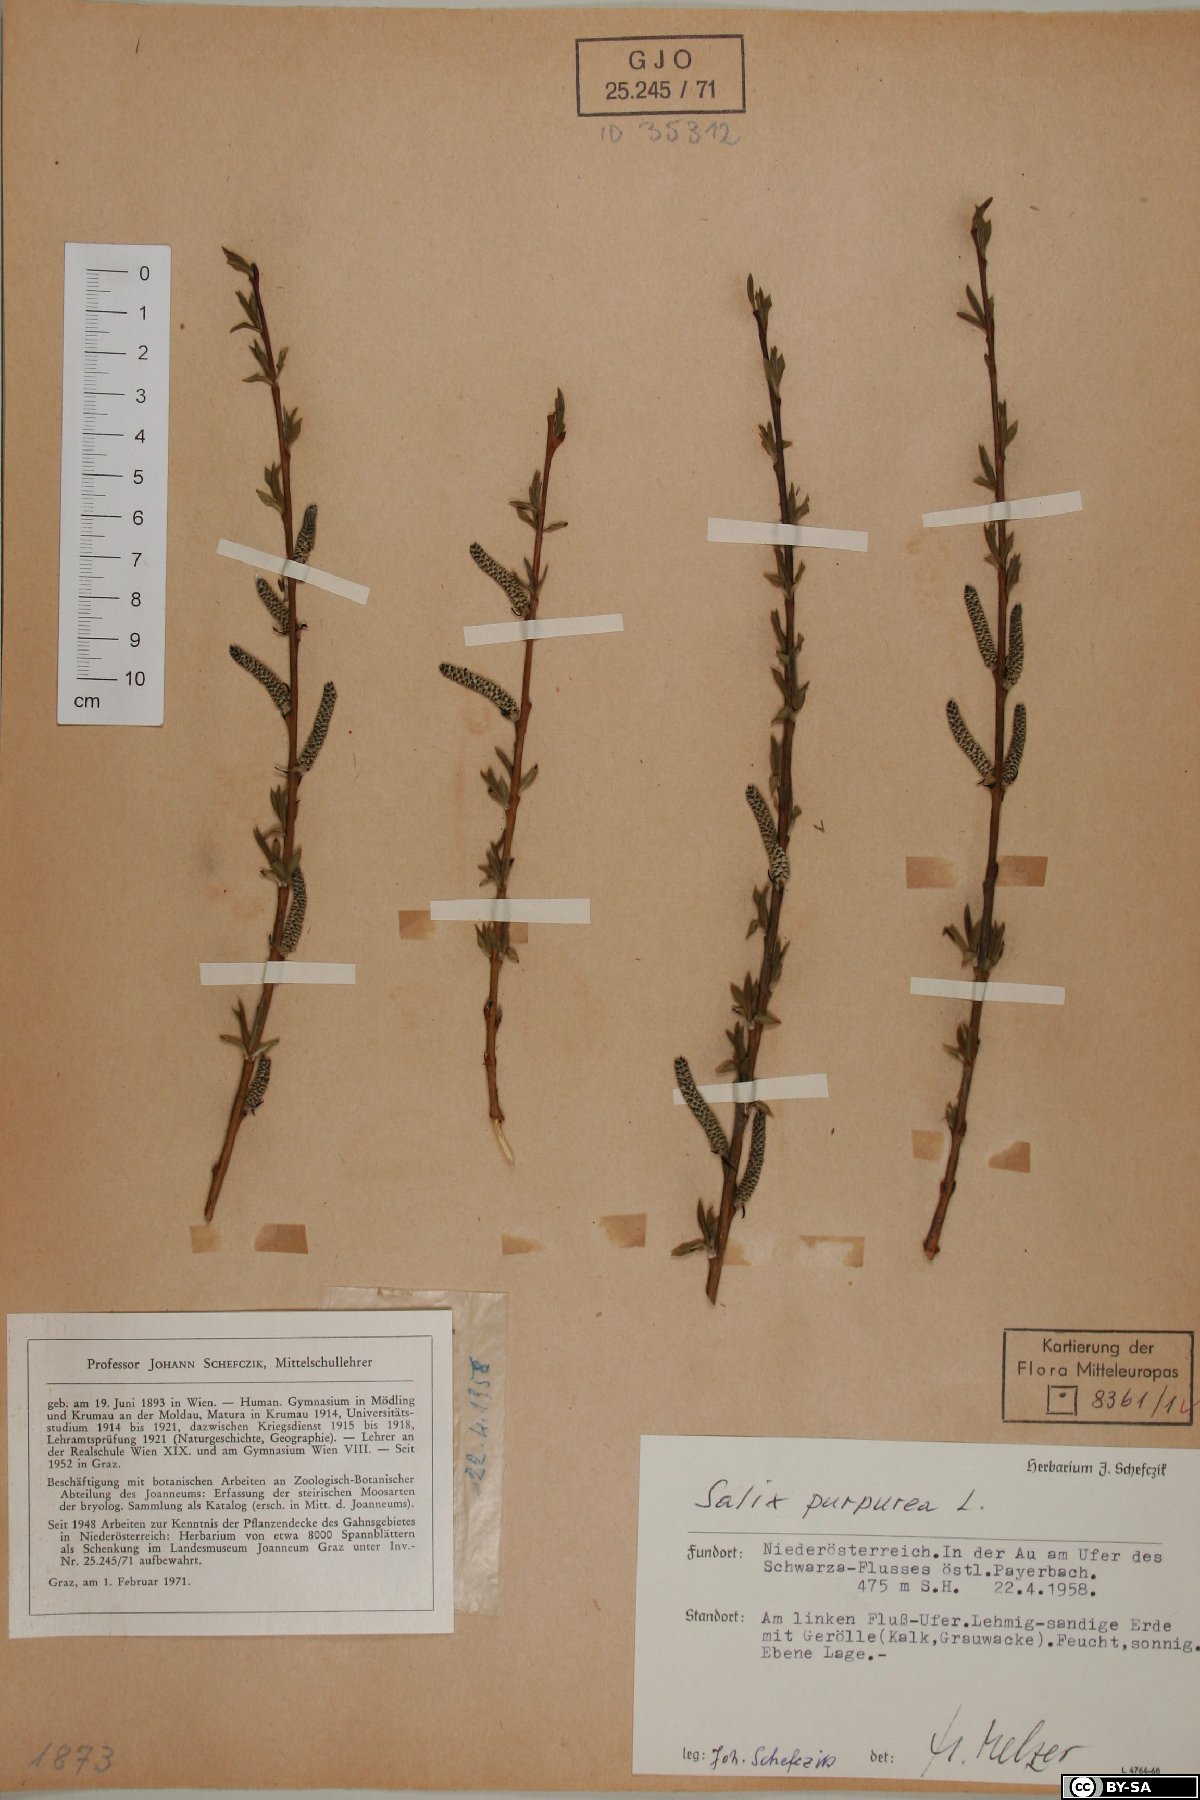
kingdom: Plantae
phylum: Tracheophyta
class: Magnoliopsida
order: Malpighiales
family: Salicaceae
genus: Salix
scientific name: Salix purpurea
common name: Purple willow
